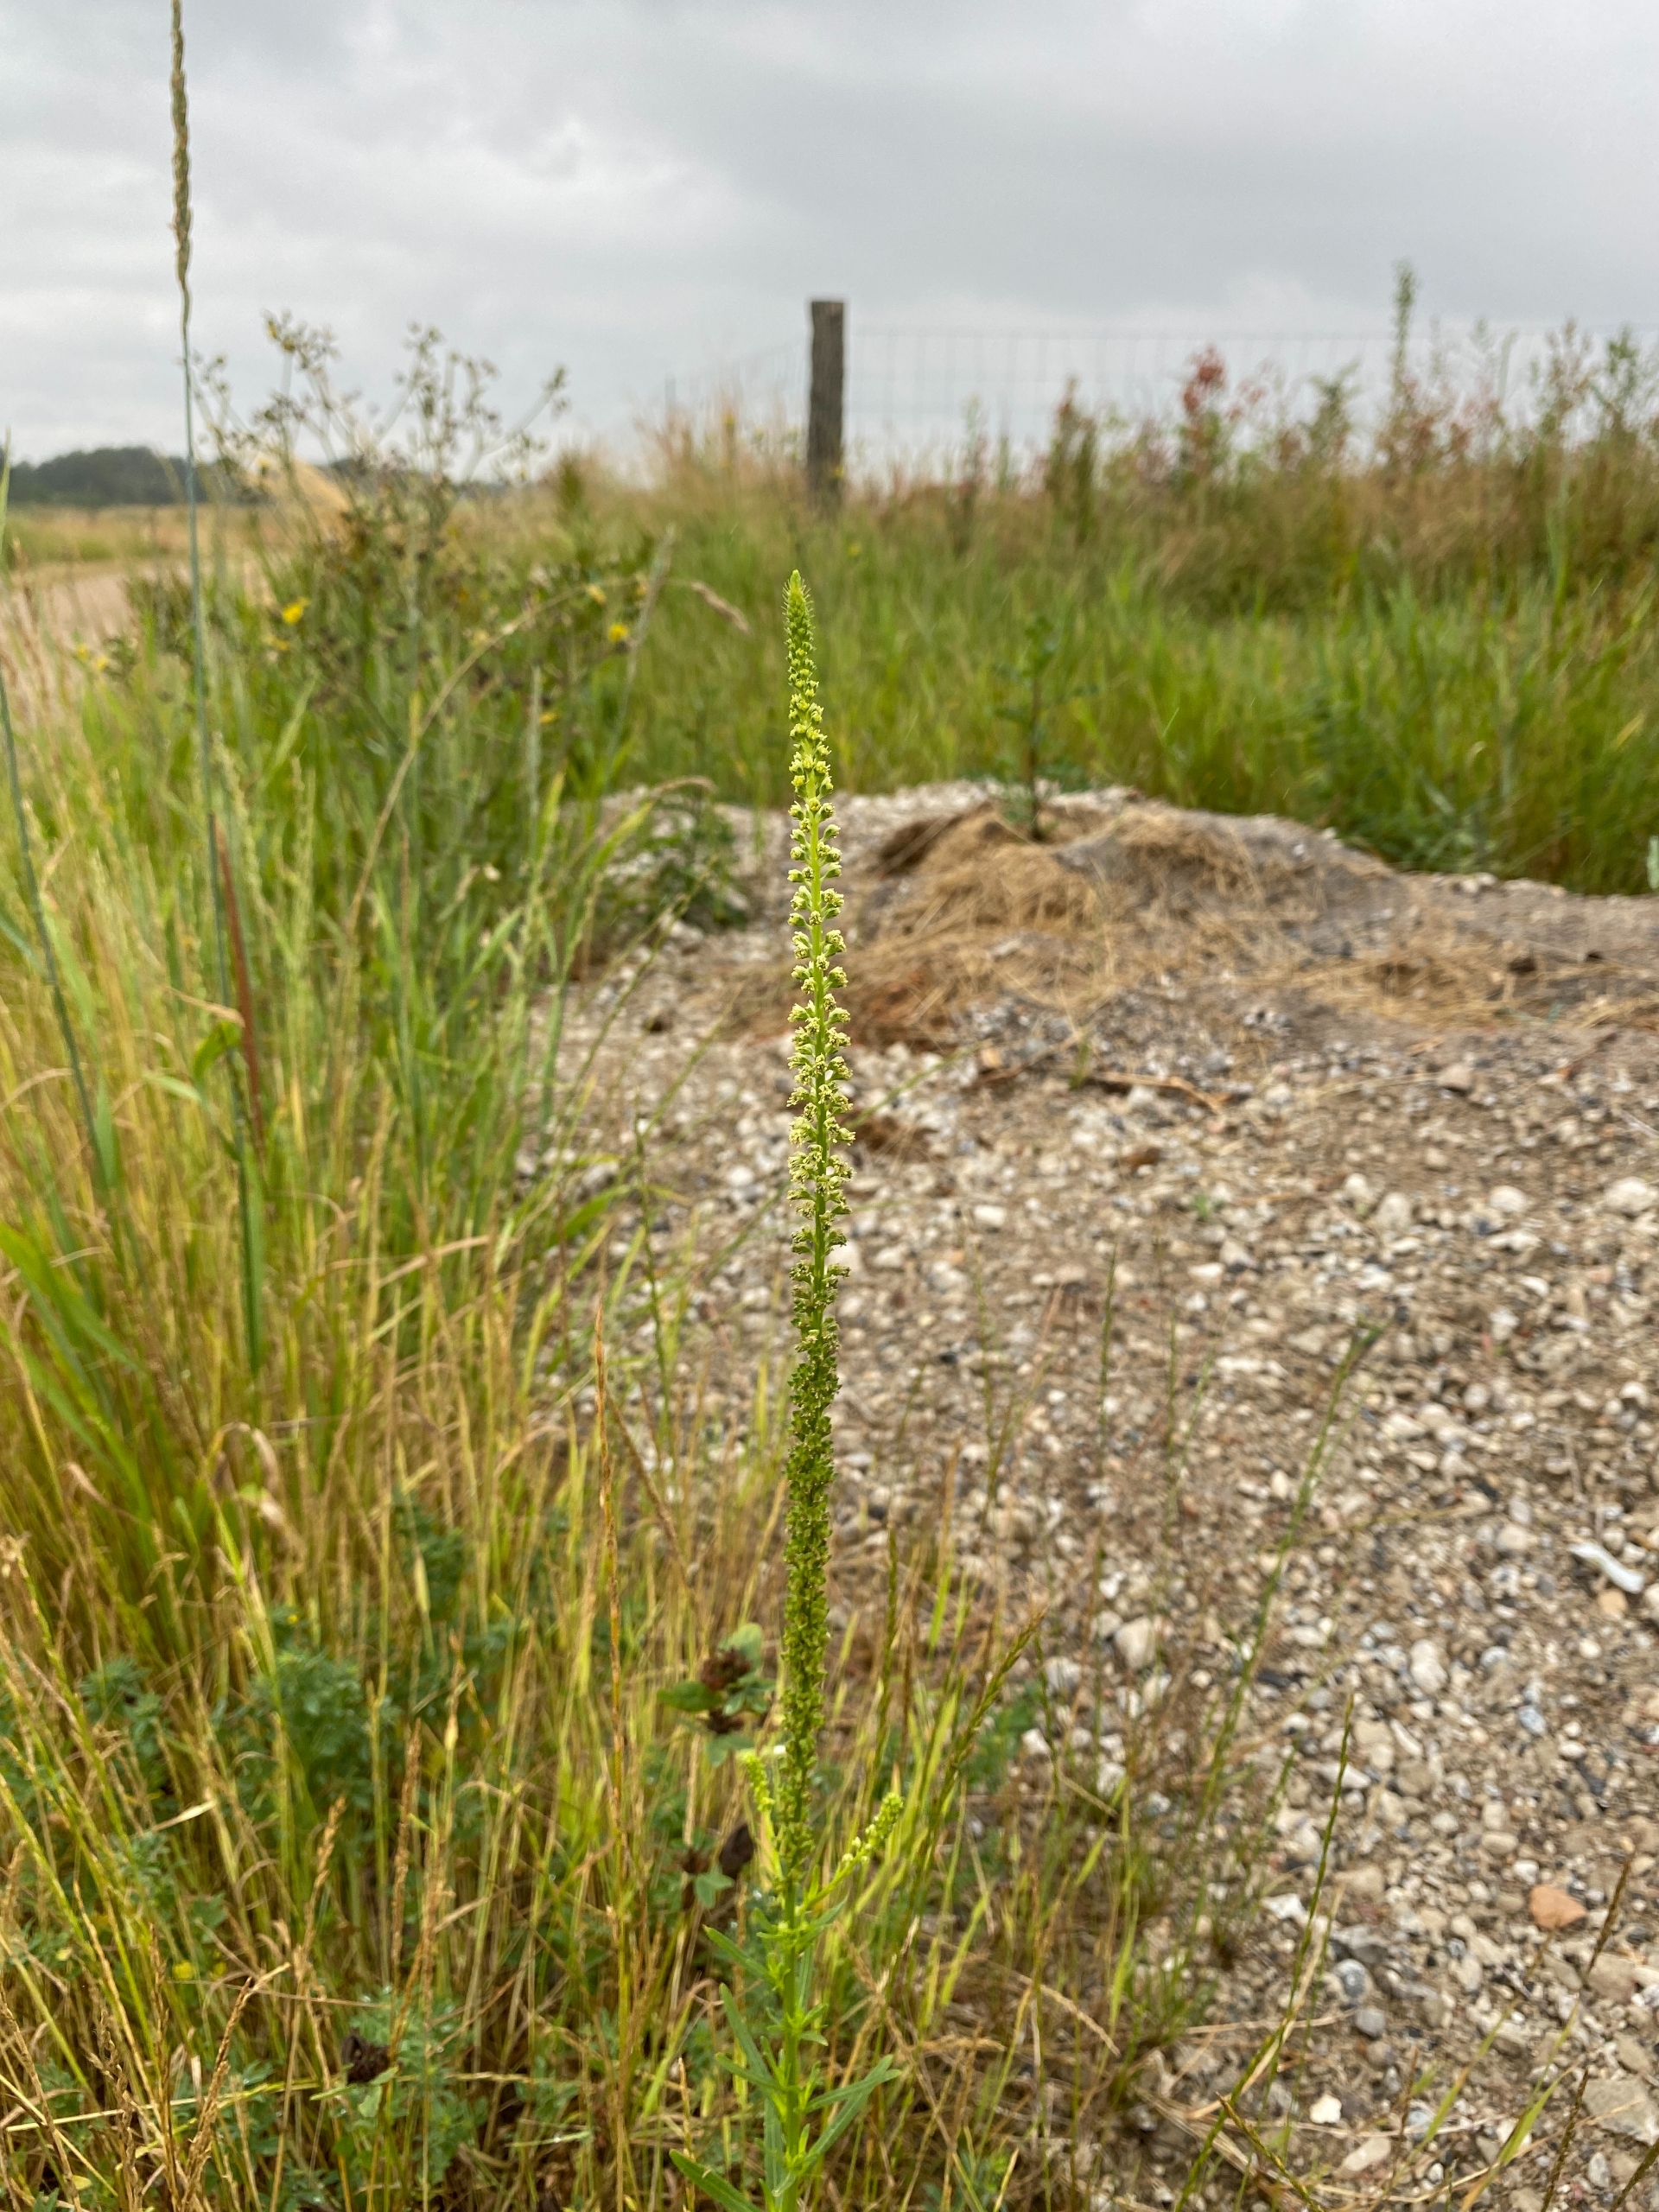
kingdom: Plantae
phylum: Tracheophyta
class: Magnoliopsida
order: Brassicales
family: Resedaceae
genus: Reseda
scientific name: Reseda luteola
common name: Farve-reseda
